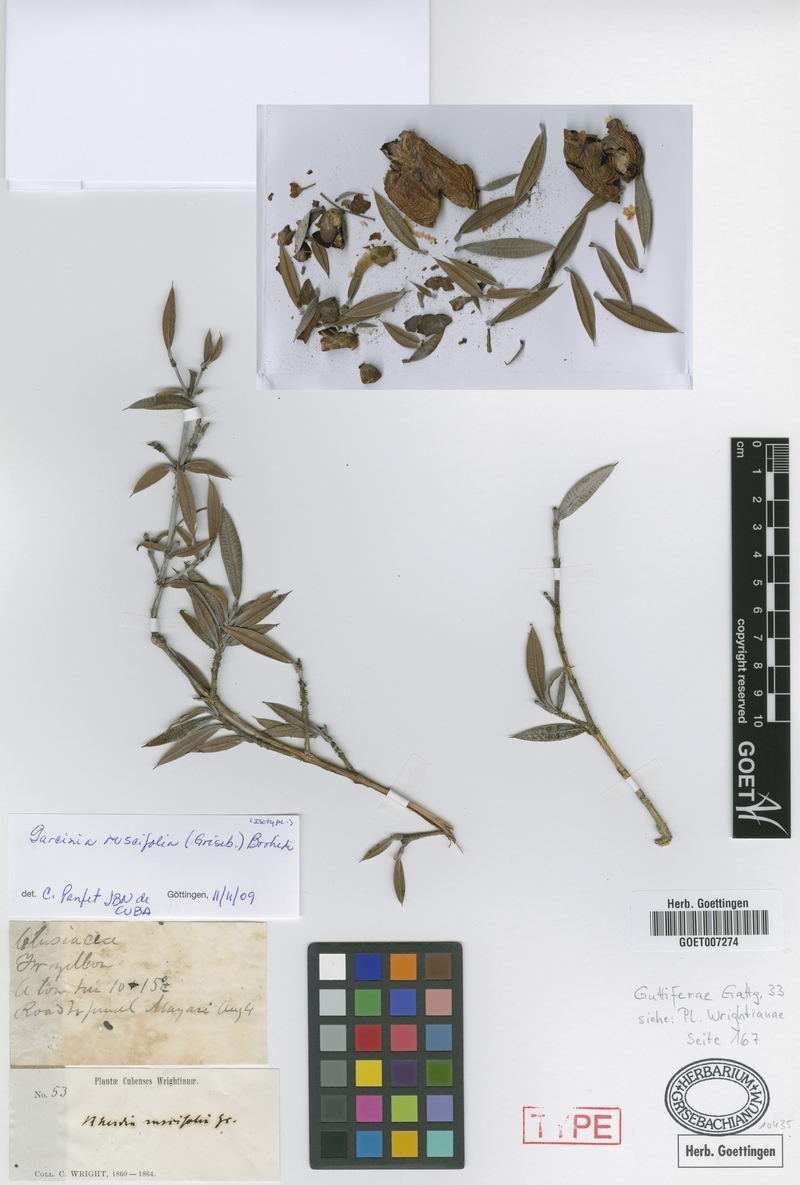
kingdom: Plantae
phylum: Tracheophyta
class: Magnoliopsida
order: Malpighiales
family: Clusiaceae
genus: Garcinia
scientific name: Garcinia ruscifolia
